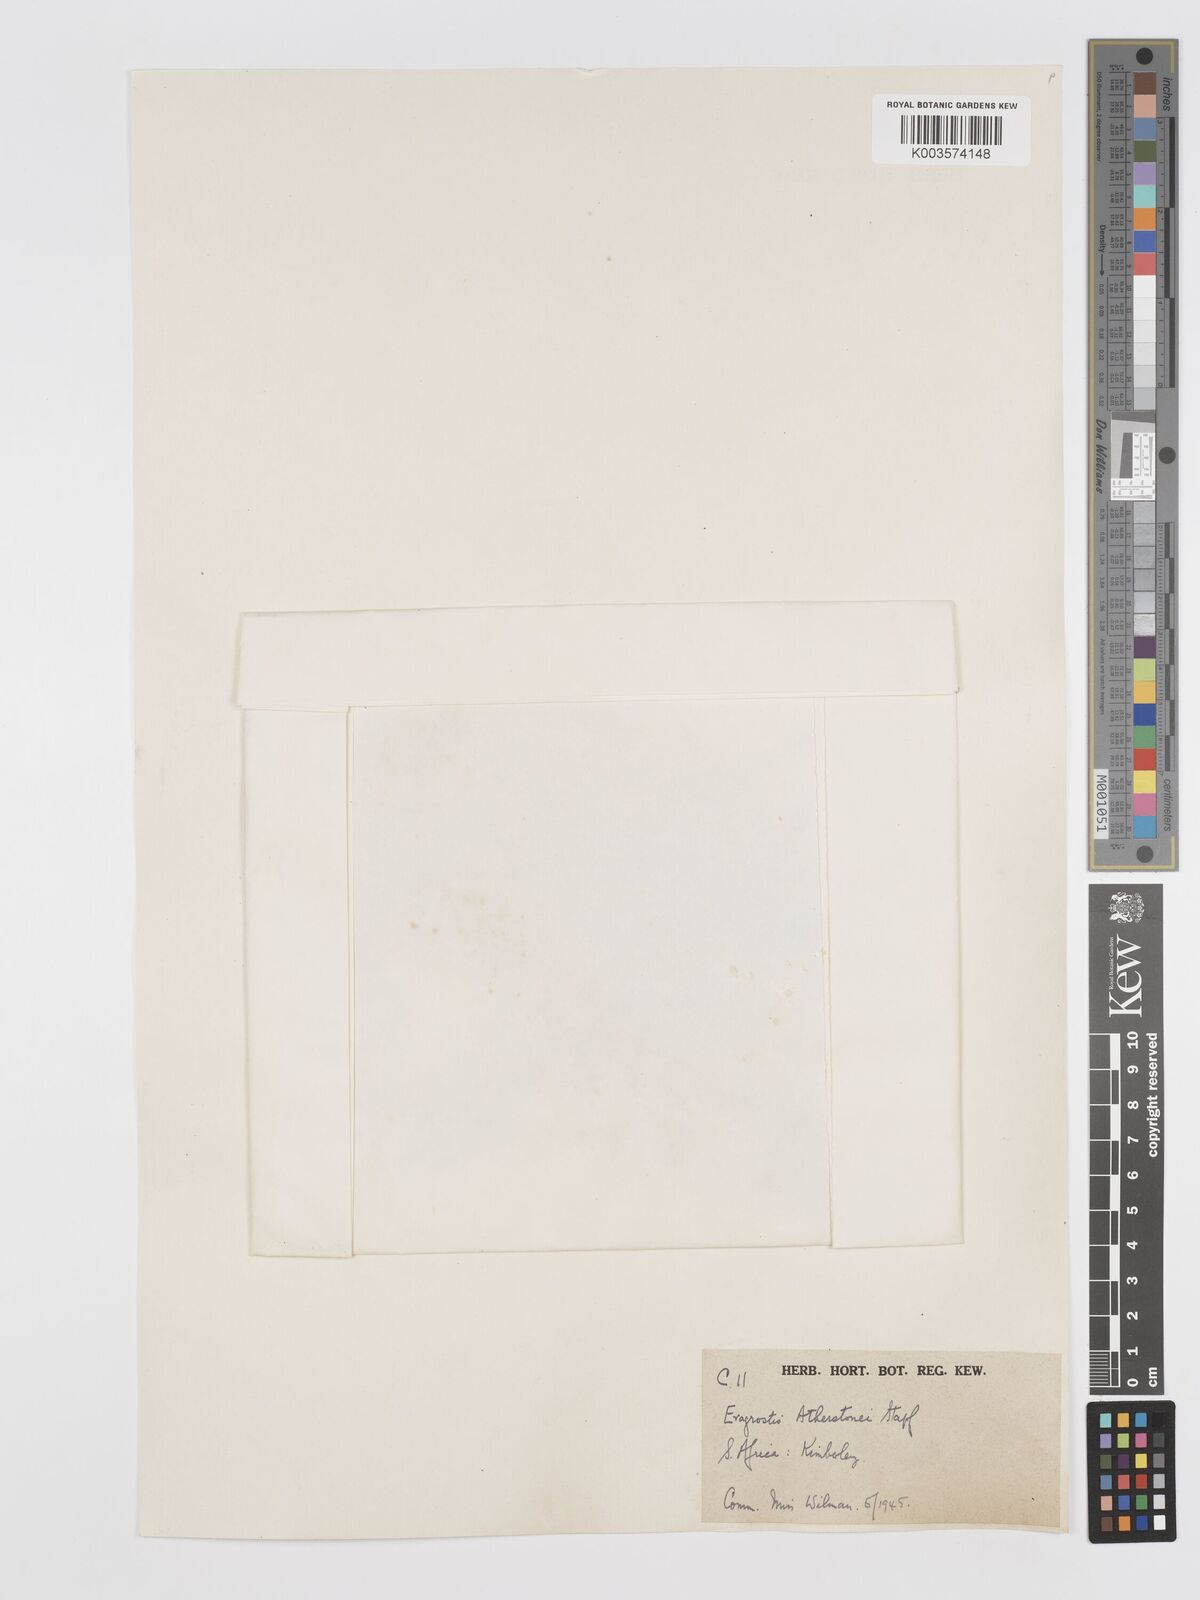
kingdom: Plantae
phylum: Tracheophyta
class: Liliopsida
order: Poales
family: Poaceae
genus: Eragrostis
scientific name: Eragrostis cylindriflora
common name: Cylinderflower lovegrass
